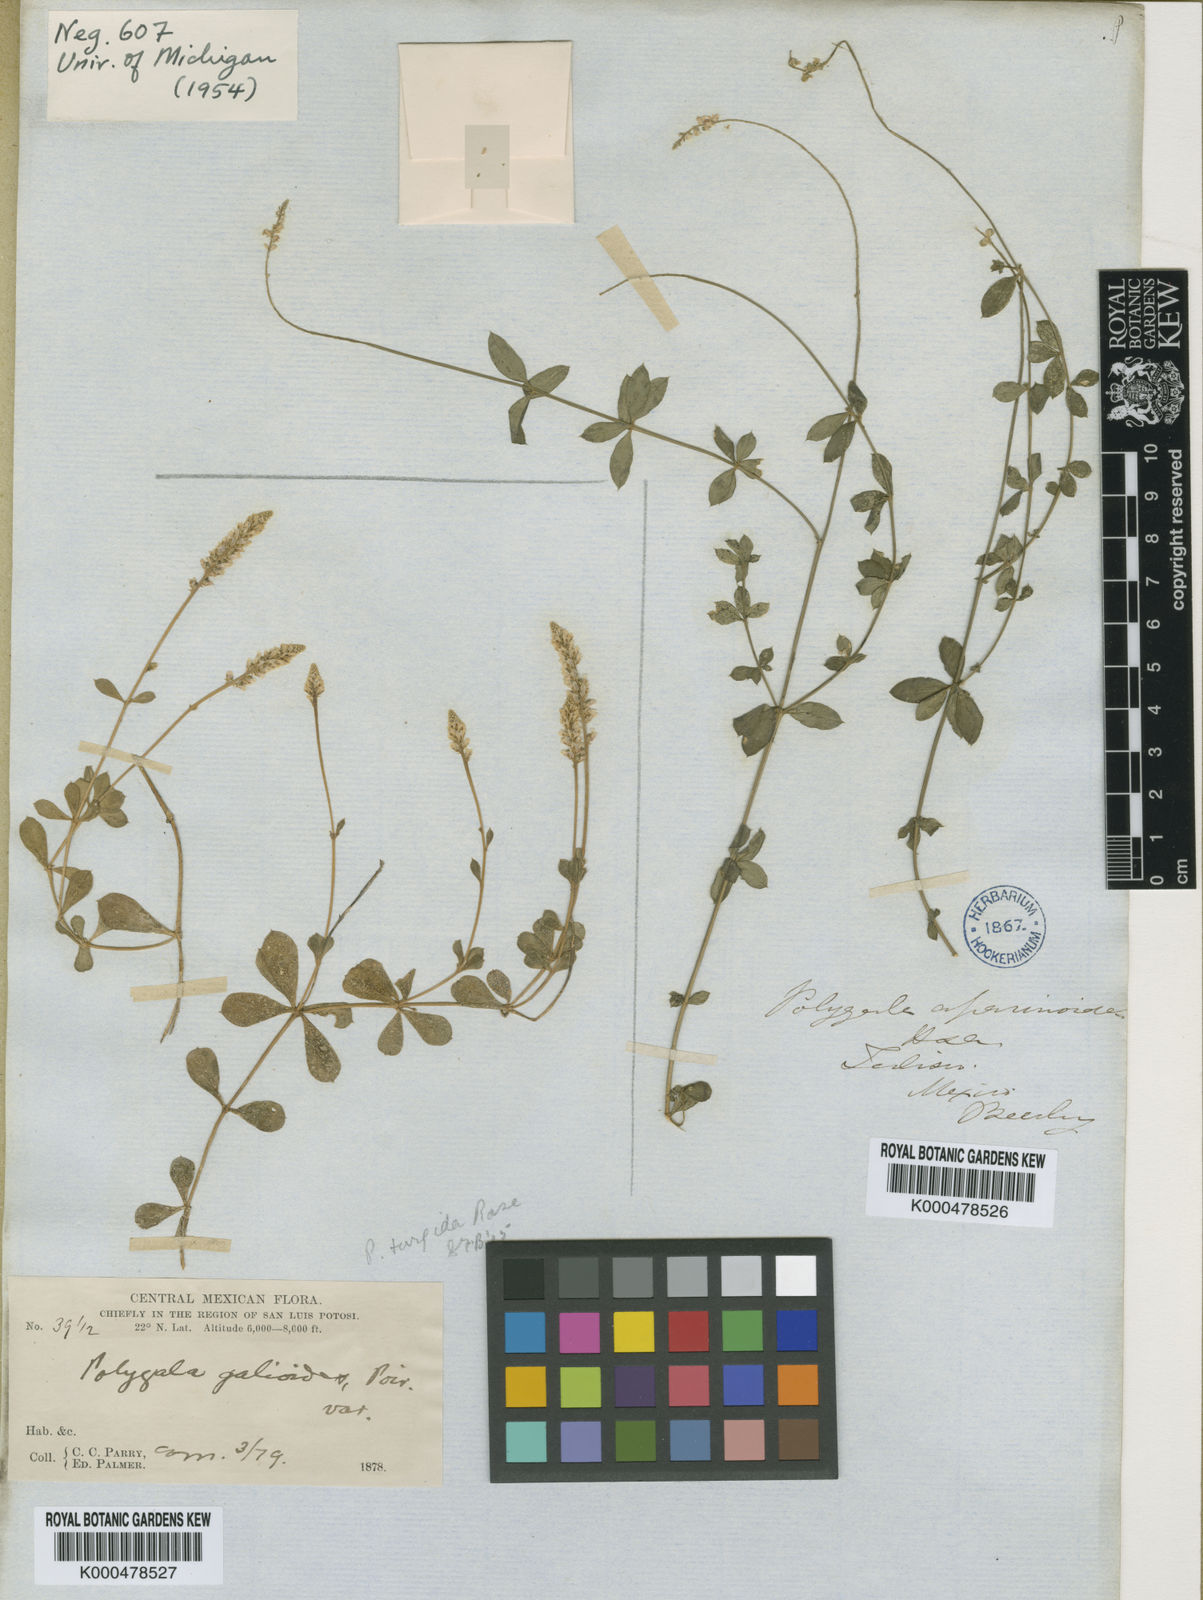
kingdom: Plantae
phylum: Tracheophyta
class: Magnoliopsida
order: Fabales
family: Polygalaceae
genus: Polygala
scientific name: Polygala aparinoides
